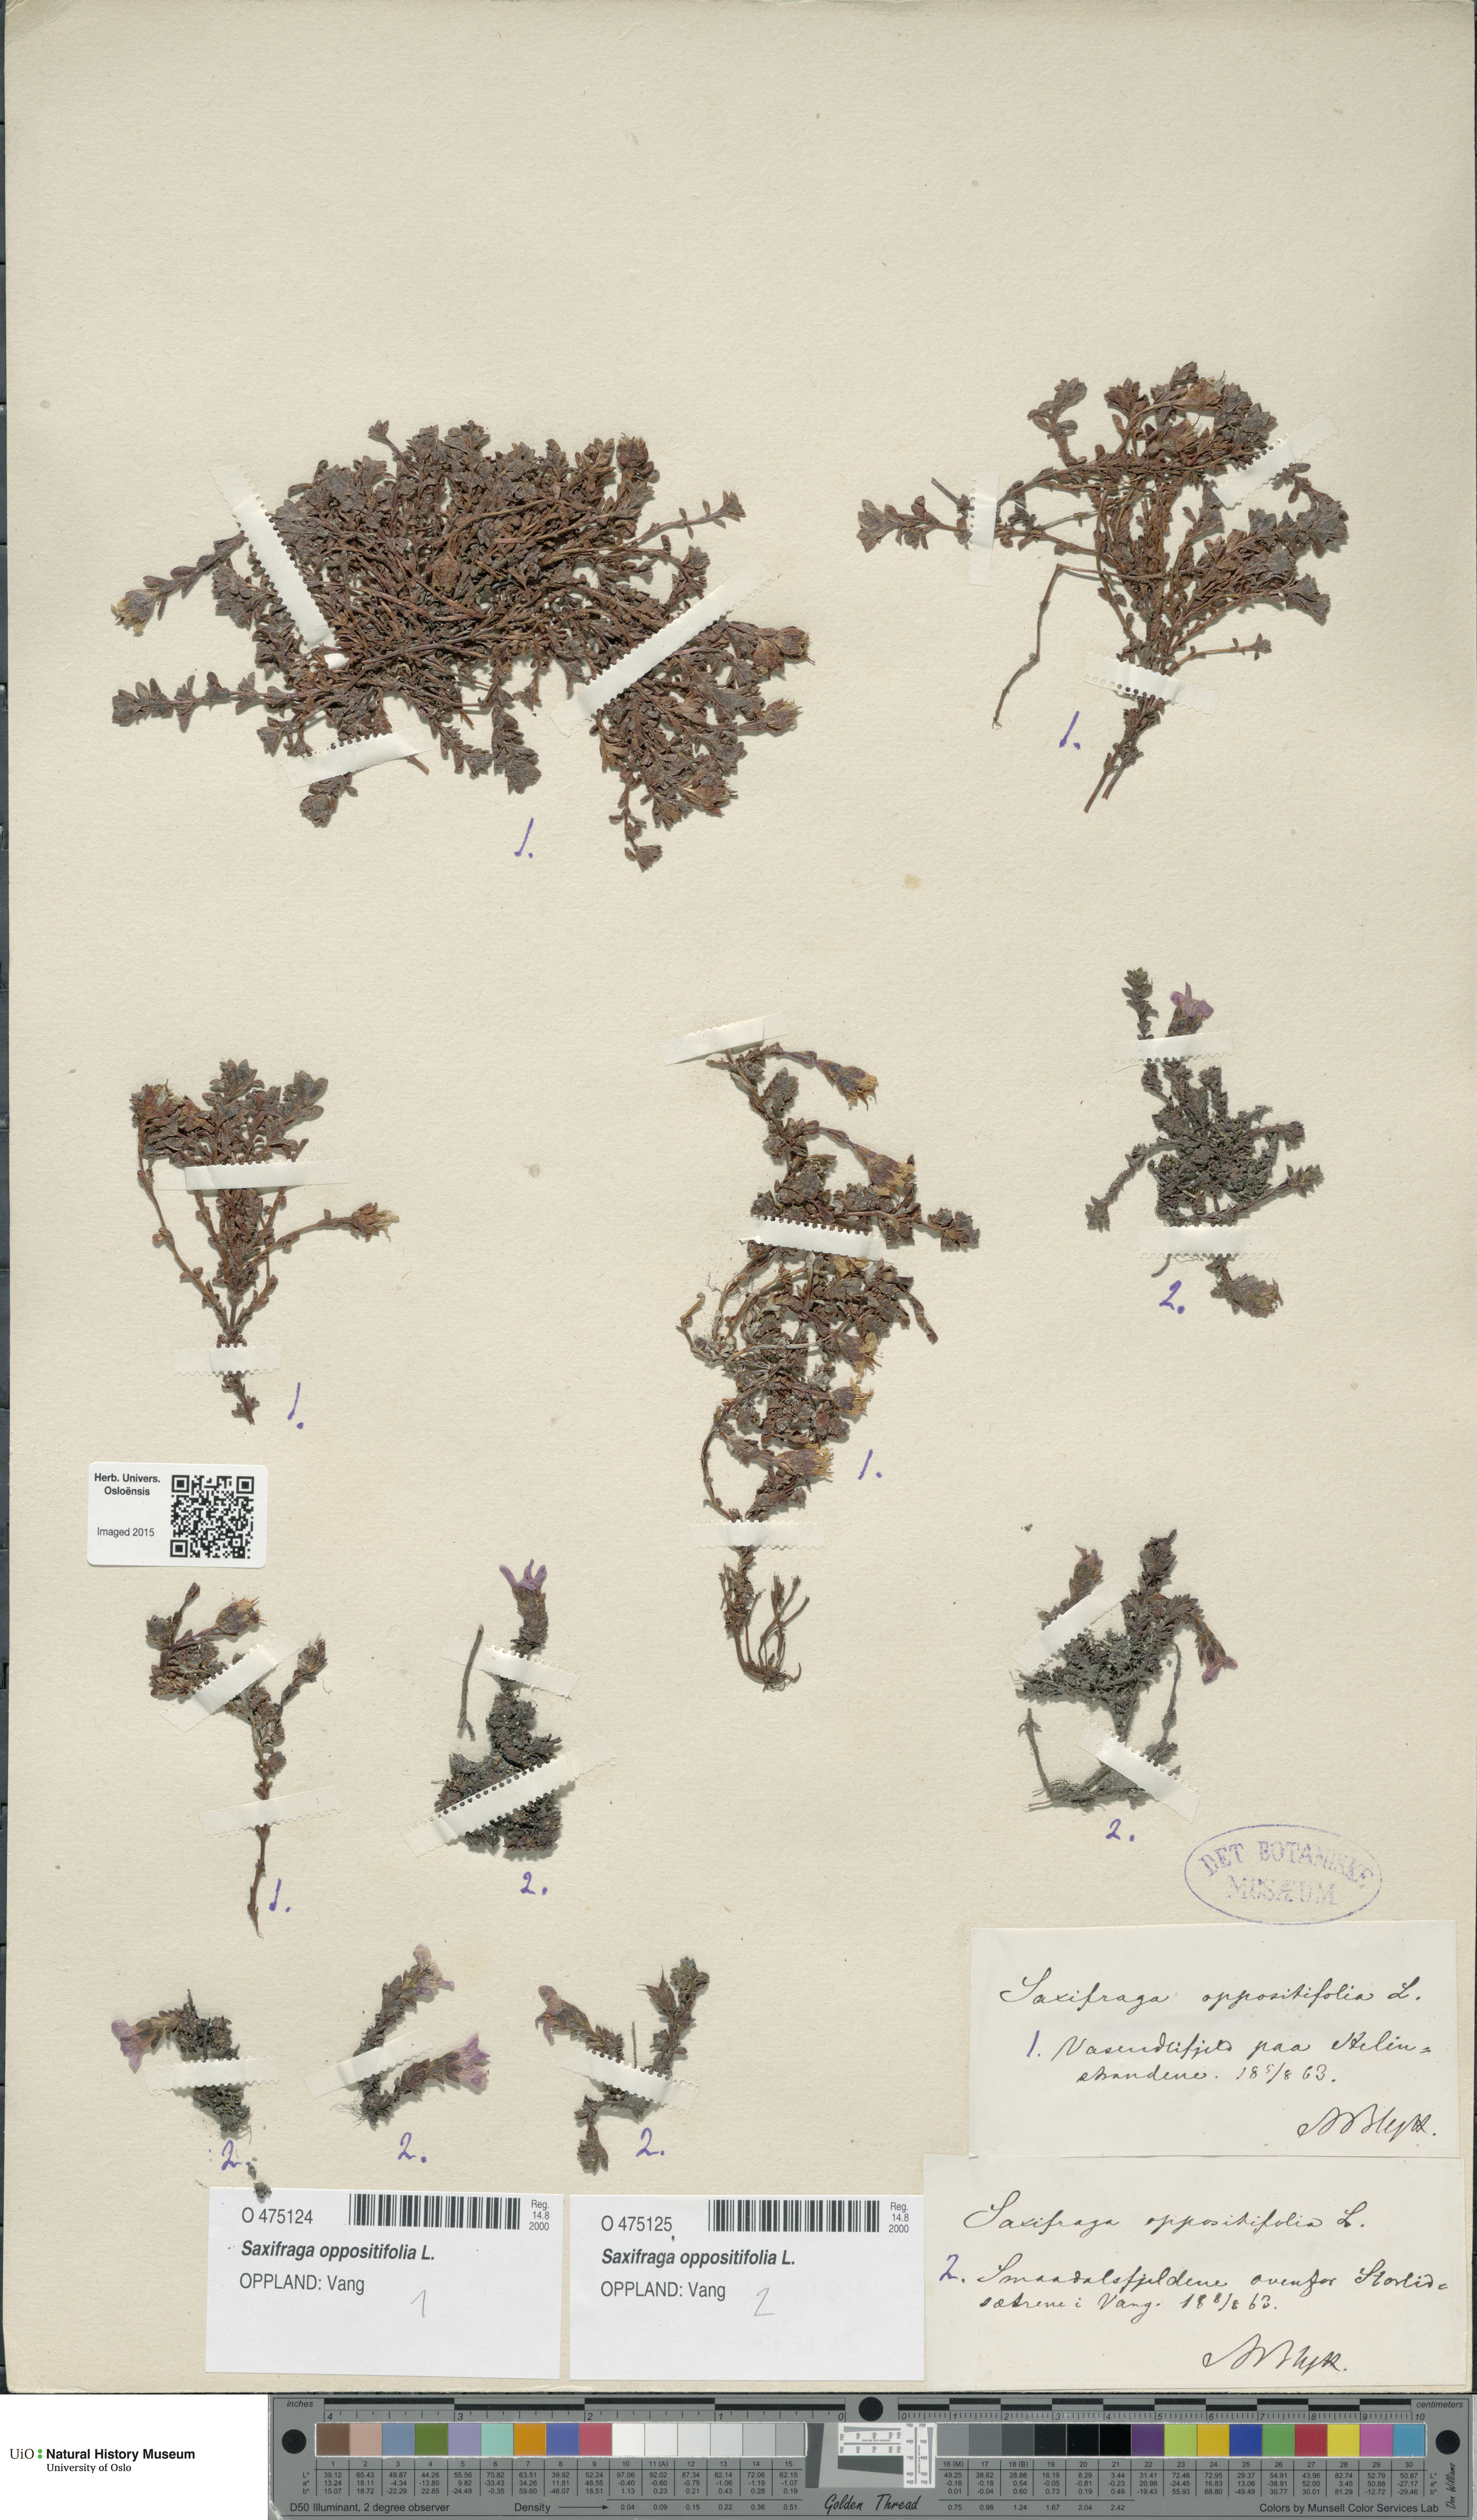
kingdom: Plantae
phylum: Tracheophyta
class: Magnoliopsida
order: Saxifragales
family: Saxifragaceae
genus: Saxifraga
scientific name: Saxifraga oppositifolia
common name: Purple saxifrage
